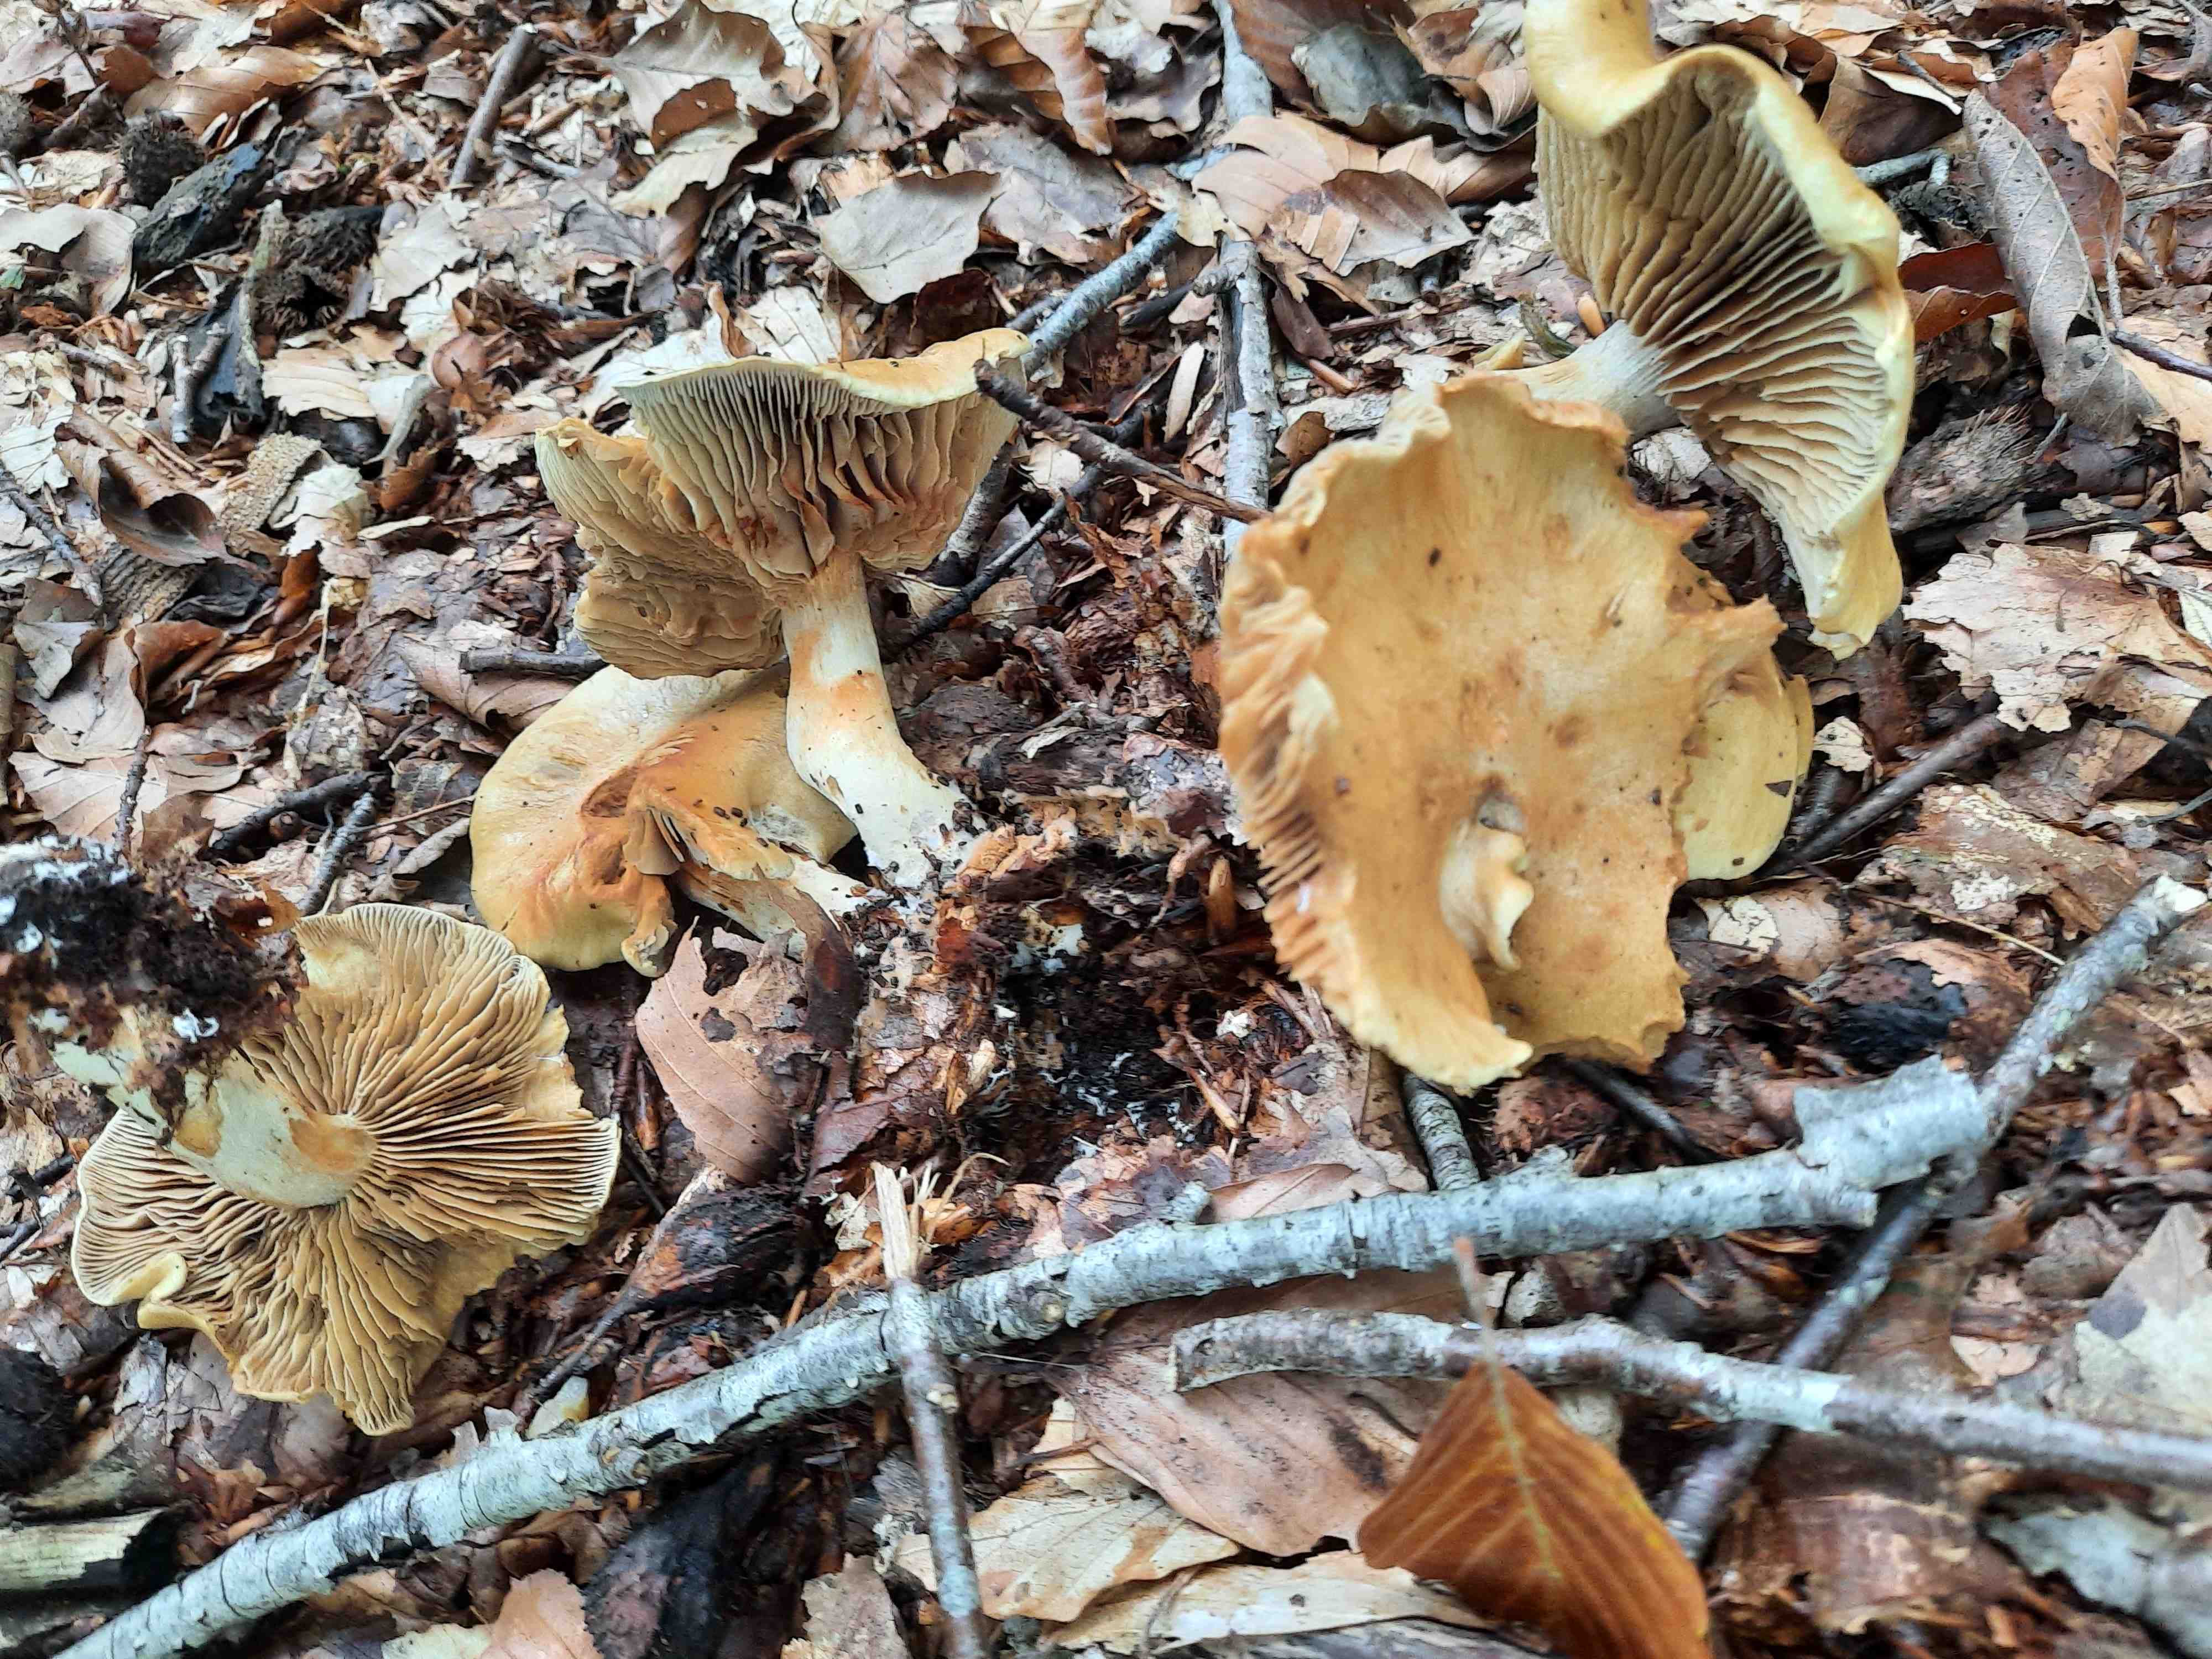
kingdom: Fungi
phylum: Basidiomycota
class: Agaricomycetes
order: Agaricales
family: Cortinariaceae
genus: Cortinarius
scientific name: Cortinarius subtortus
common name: olivengul slørhat
